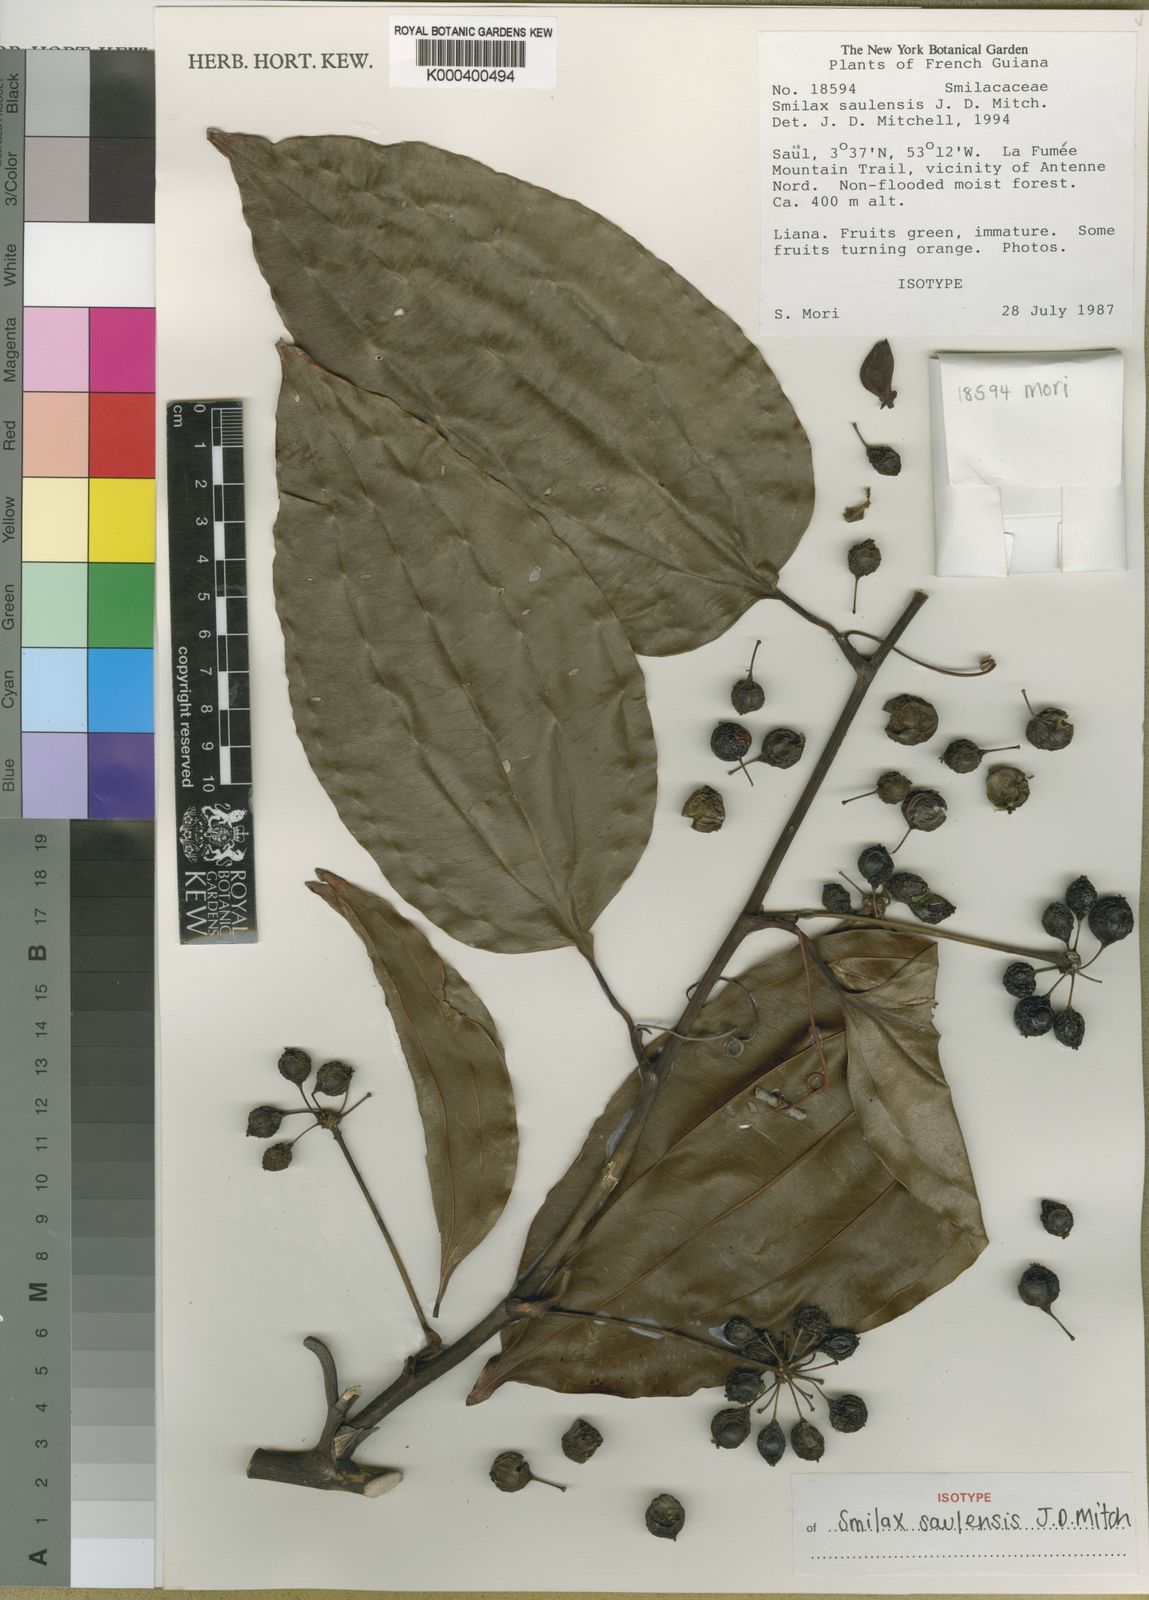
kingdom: Plantae
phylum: Tracheophyta
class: Liliopsida
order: Liliales
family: Smilacaceae
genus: Smilax
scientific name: Smilax saulensis
